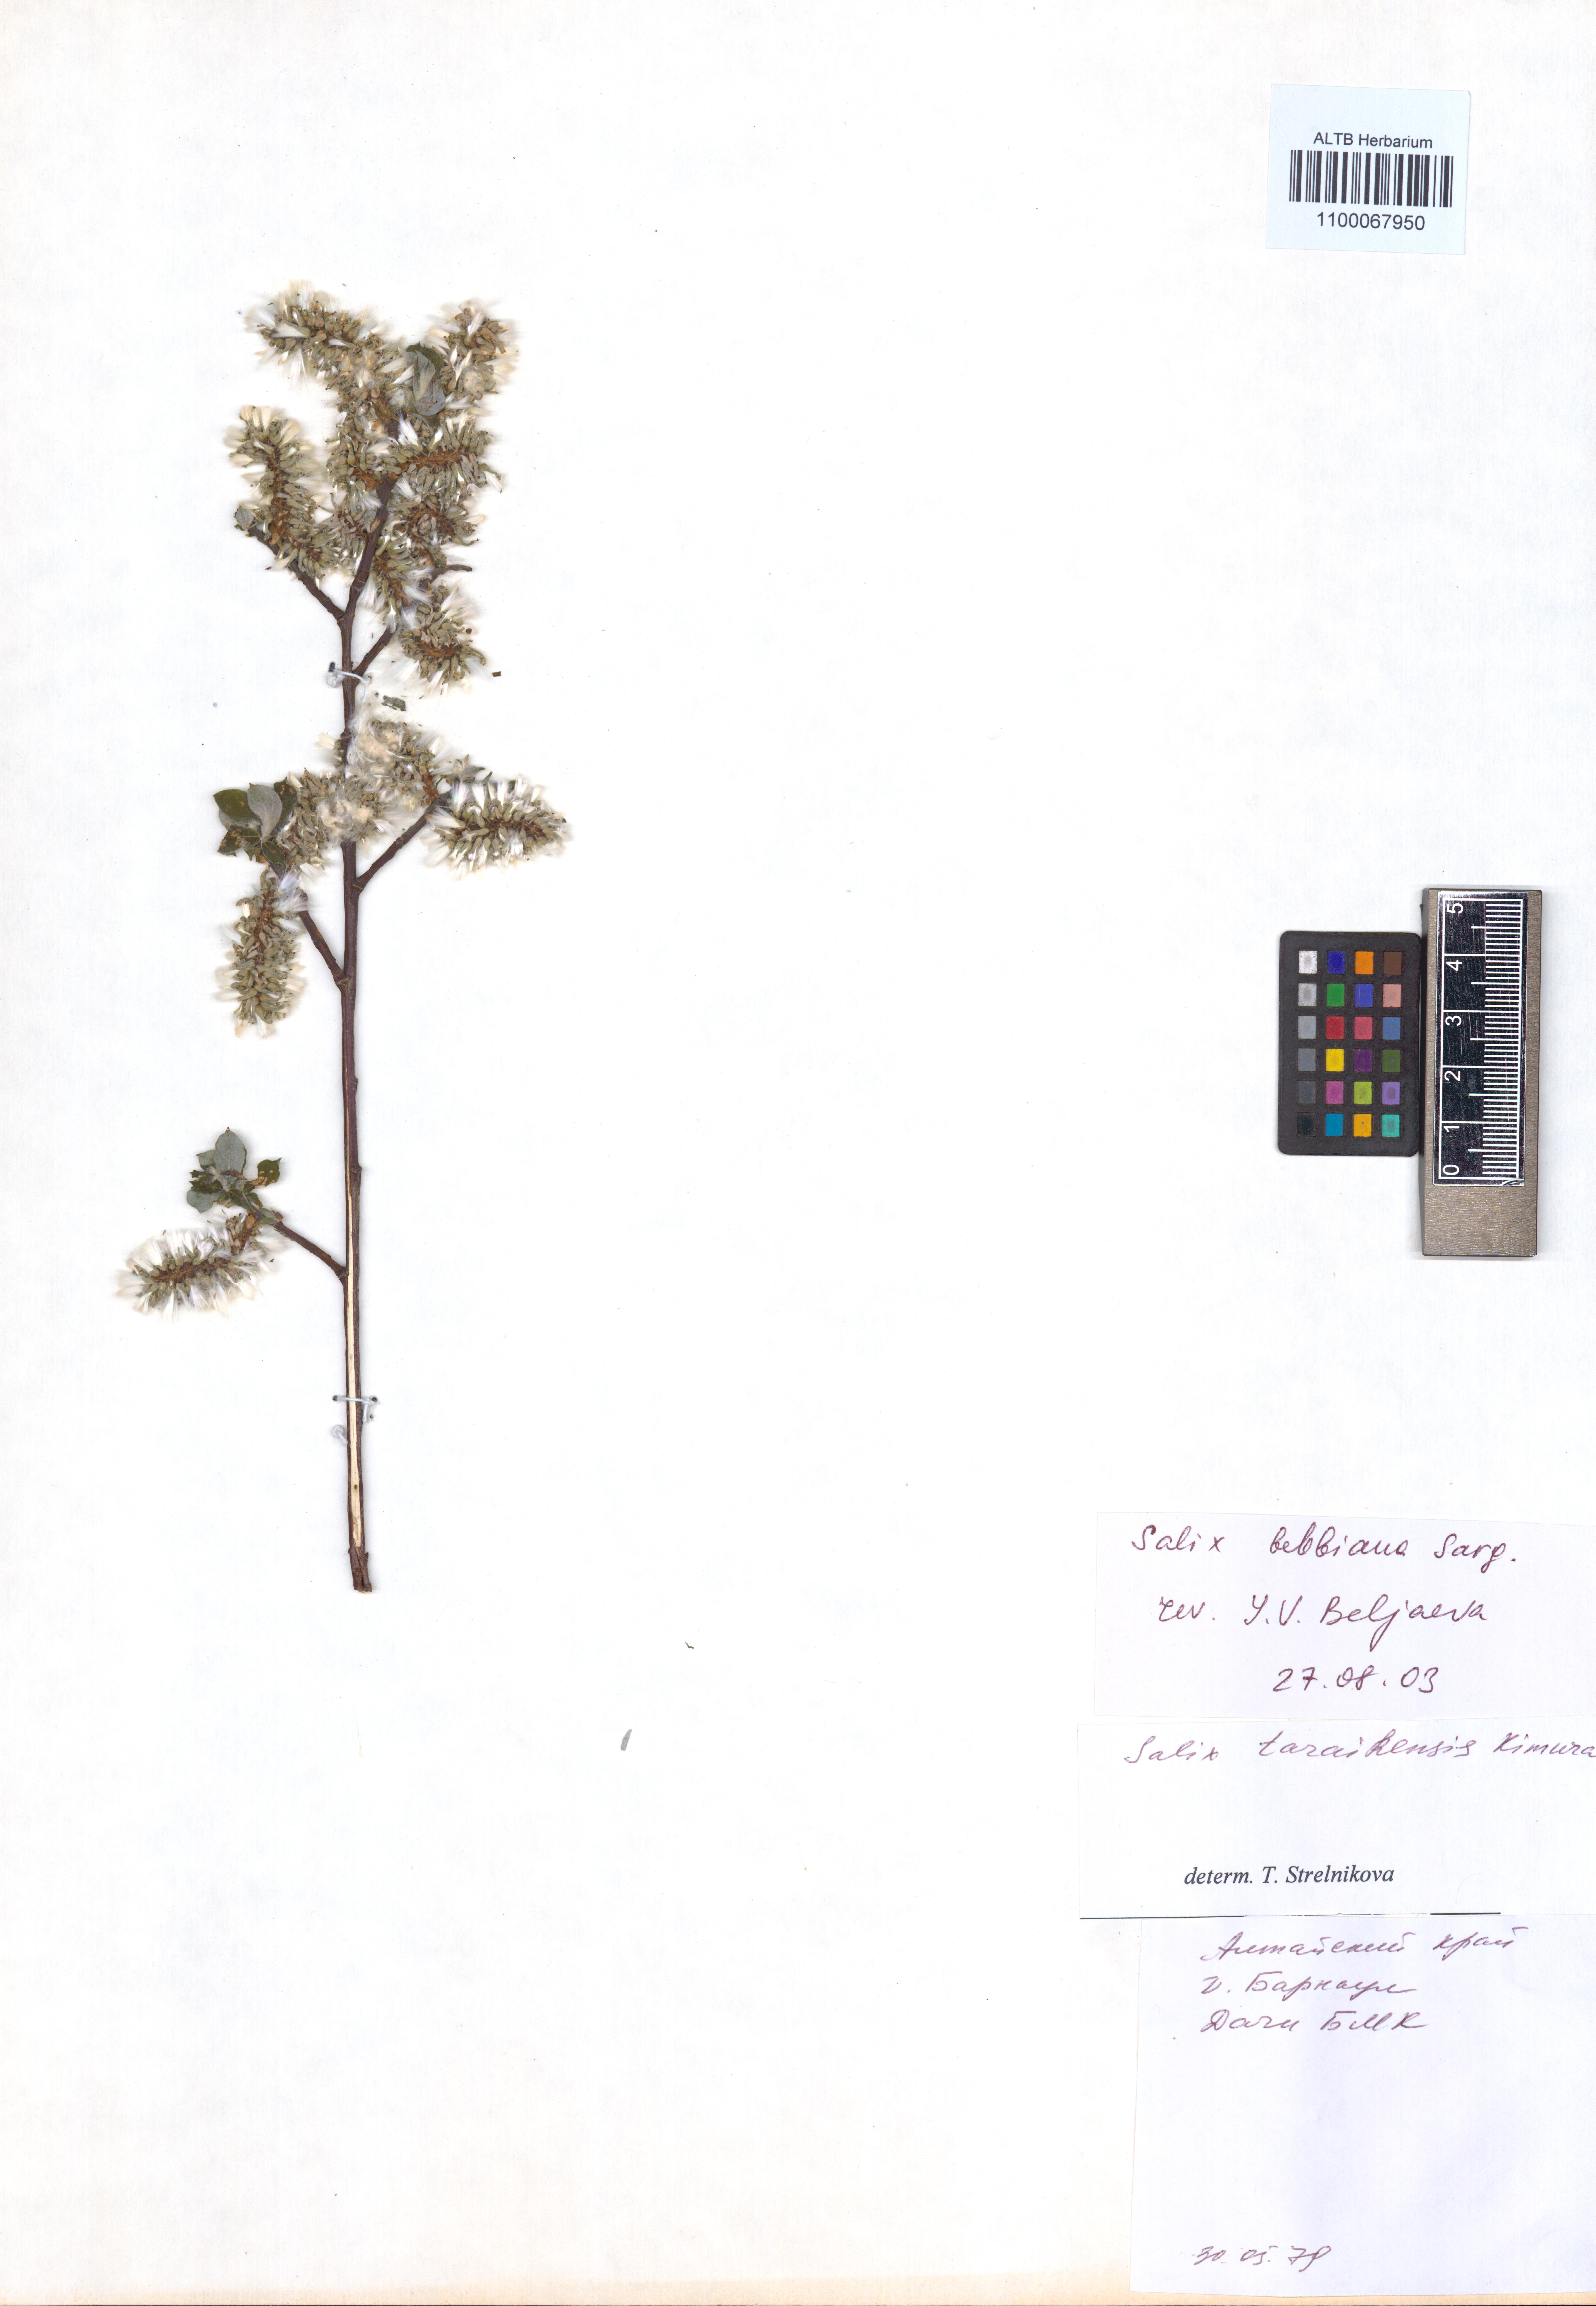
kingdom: Plantae
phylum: Tracheophyta
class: Magnoliopsida
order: Malpighiales
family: Salicaceae
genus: Salix
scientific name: Salix bebbiana
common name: Bebb's willow
